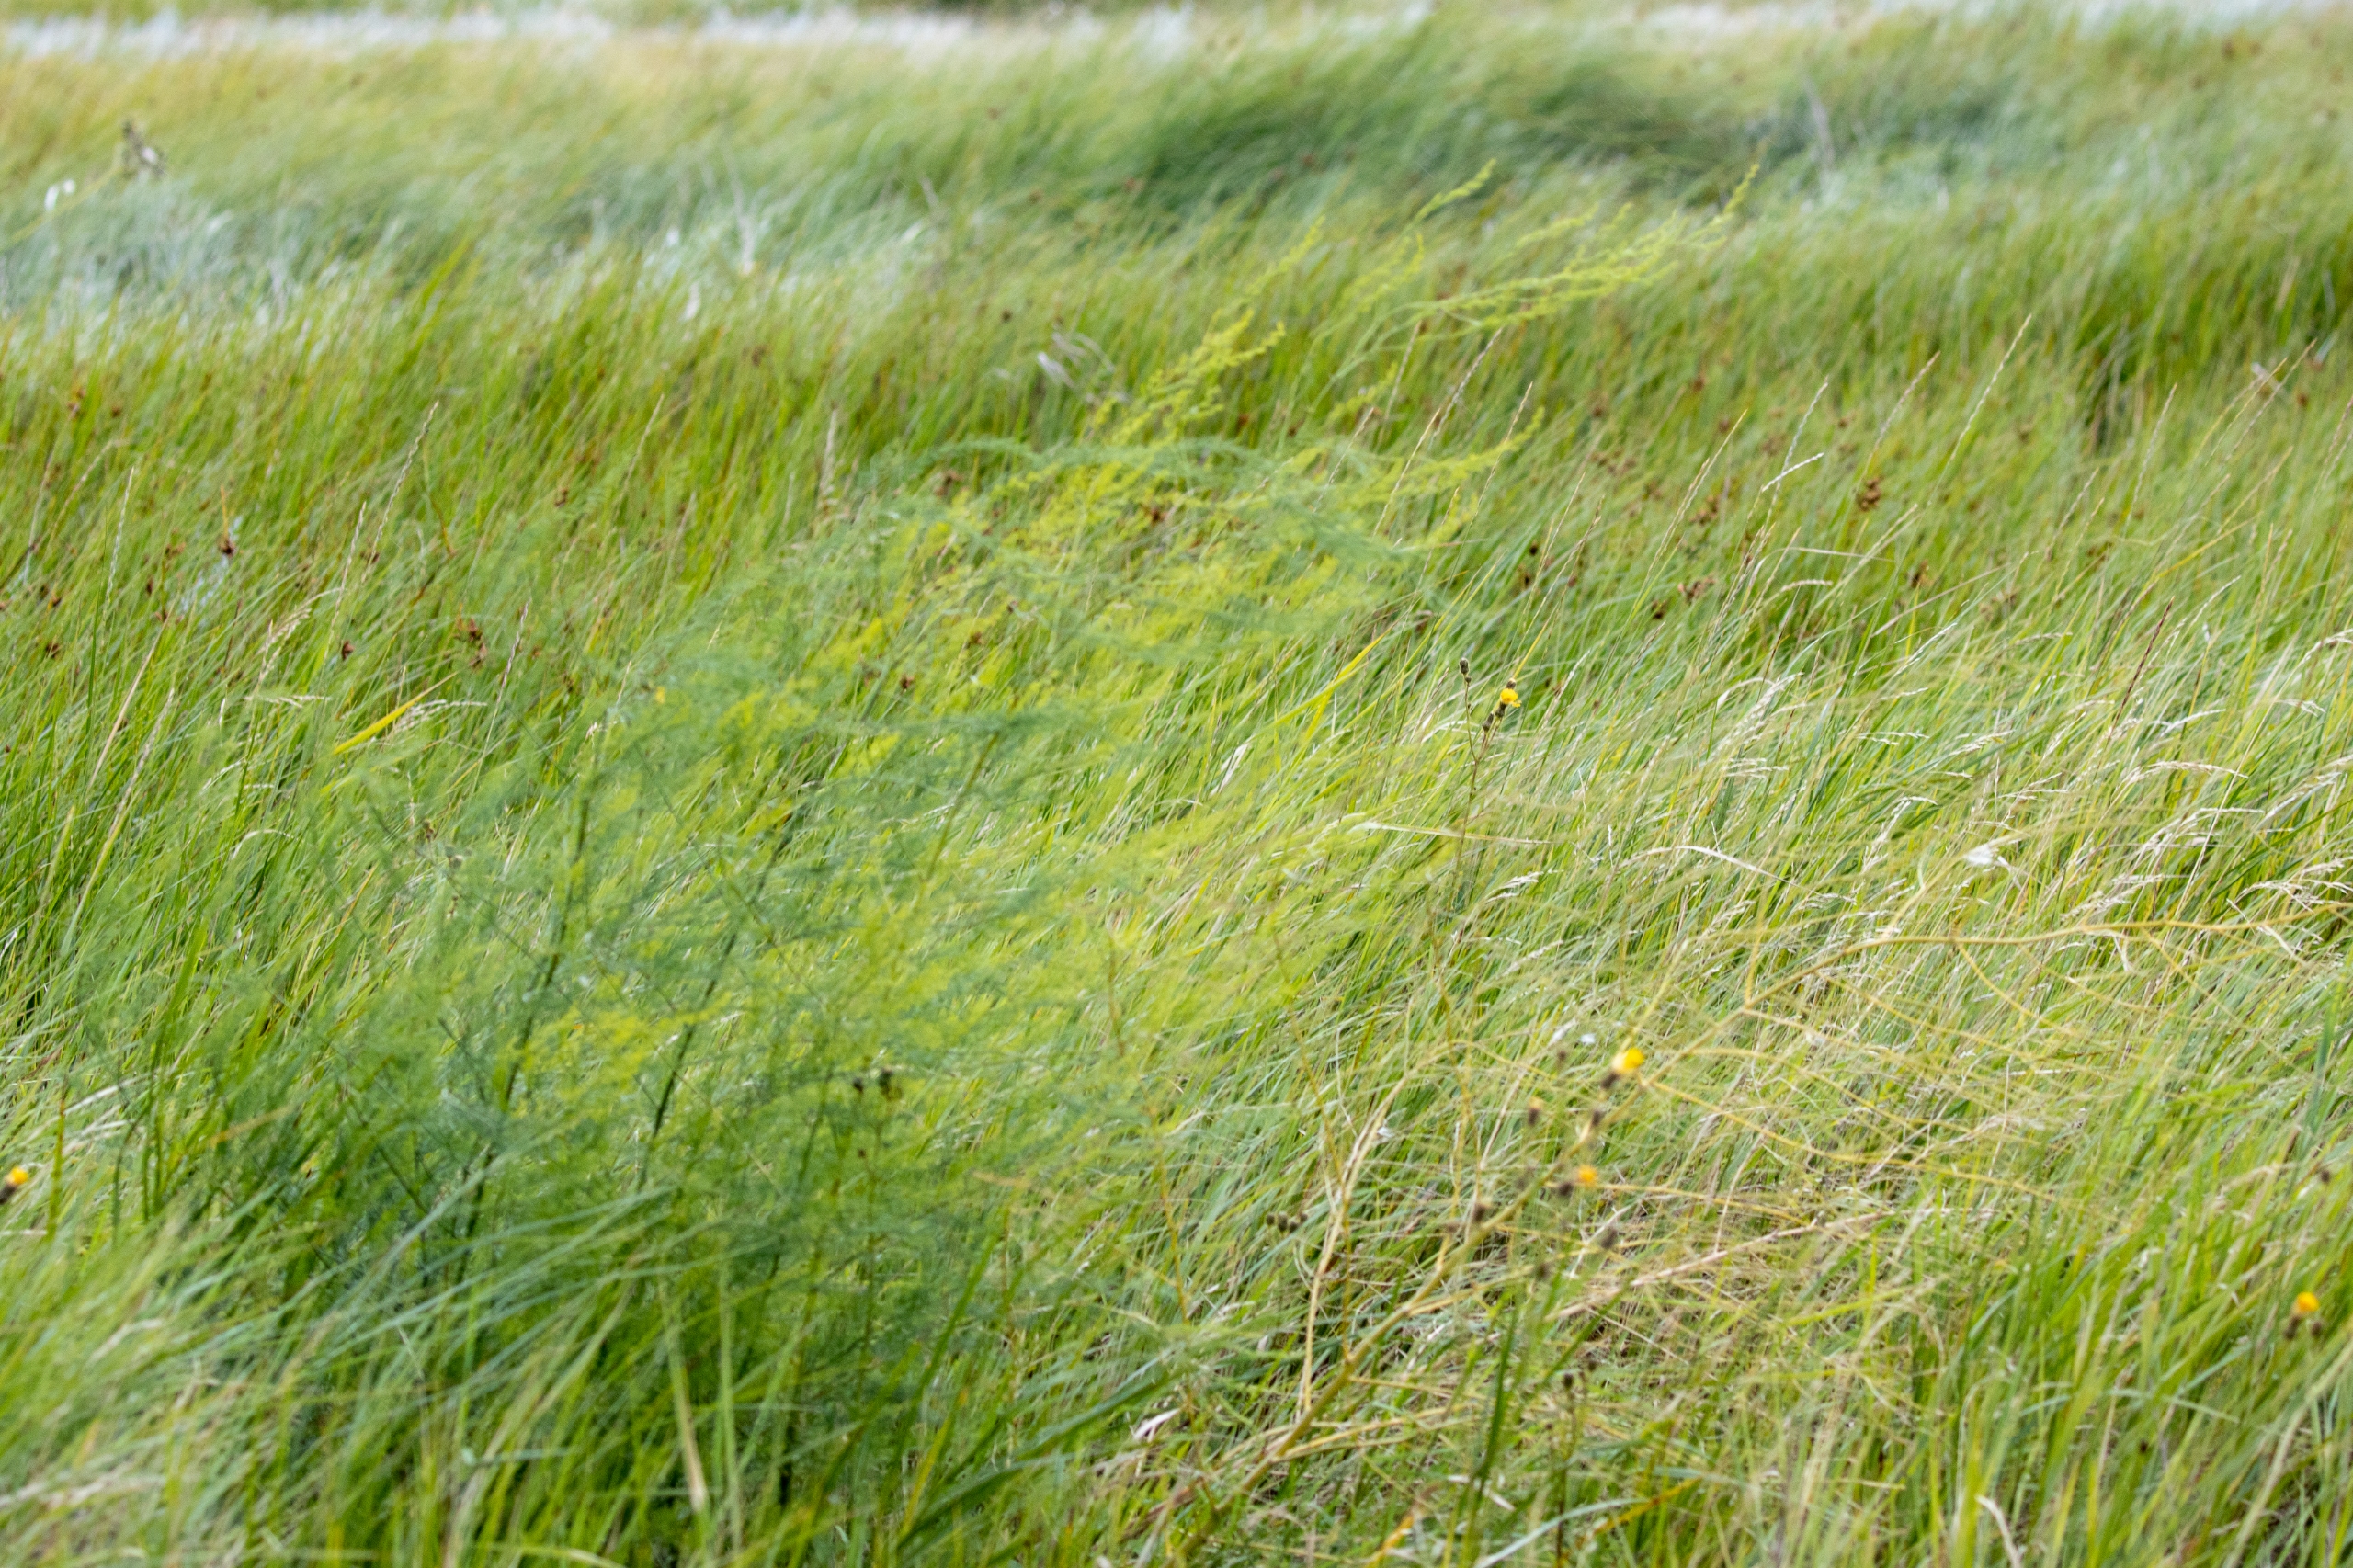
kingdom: Plantae
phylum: Tracheophyta
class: Liliopsida
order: Asparagales
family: Asparagaceae
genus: Asparagus
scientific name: Asparagus officinalis
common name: Asparges
